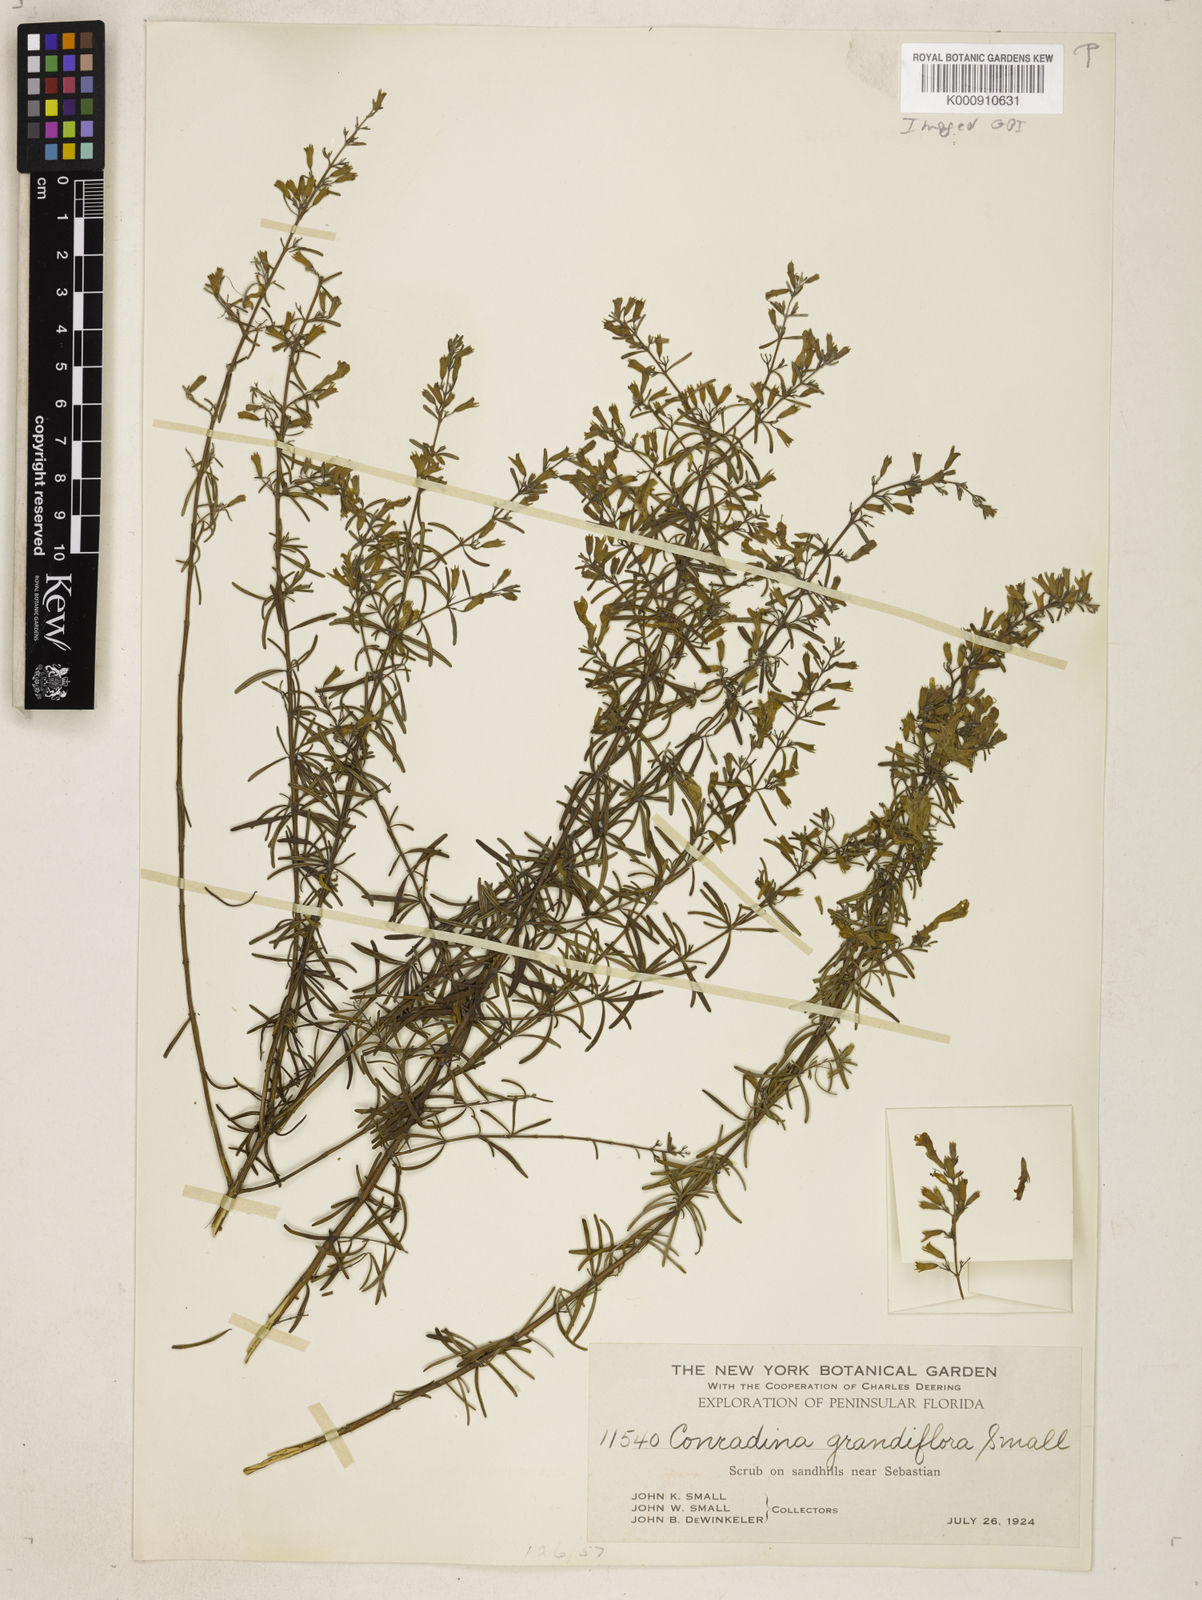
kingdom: Plantae
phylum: Tracheophyta
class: Magnoliopsida
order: Lamiales
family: Lamiaceae
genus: Conradina
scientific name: Conradina grandiflora
